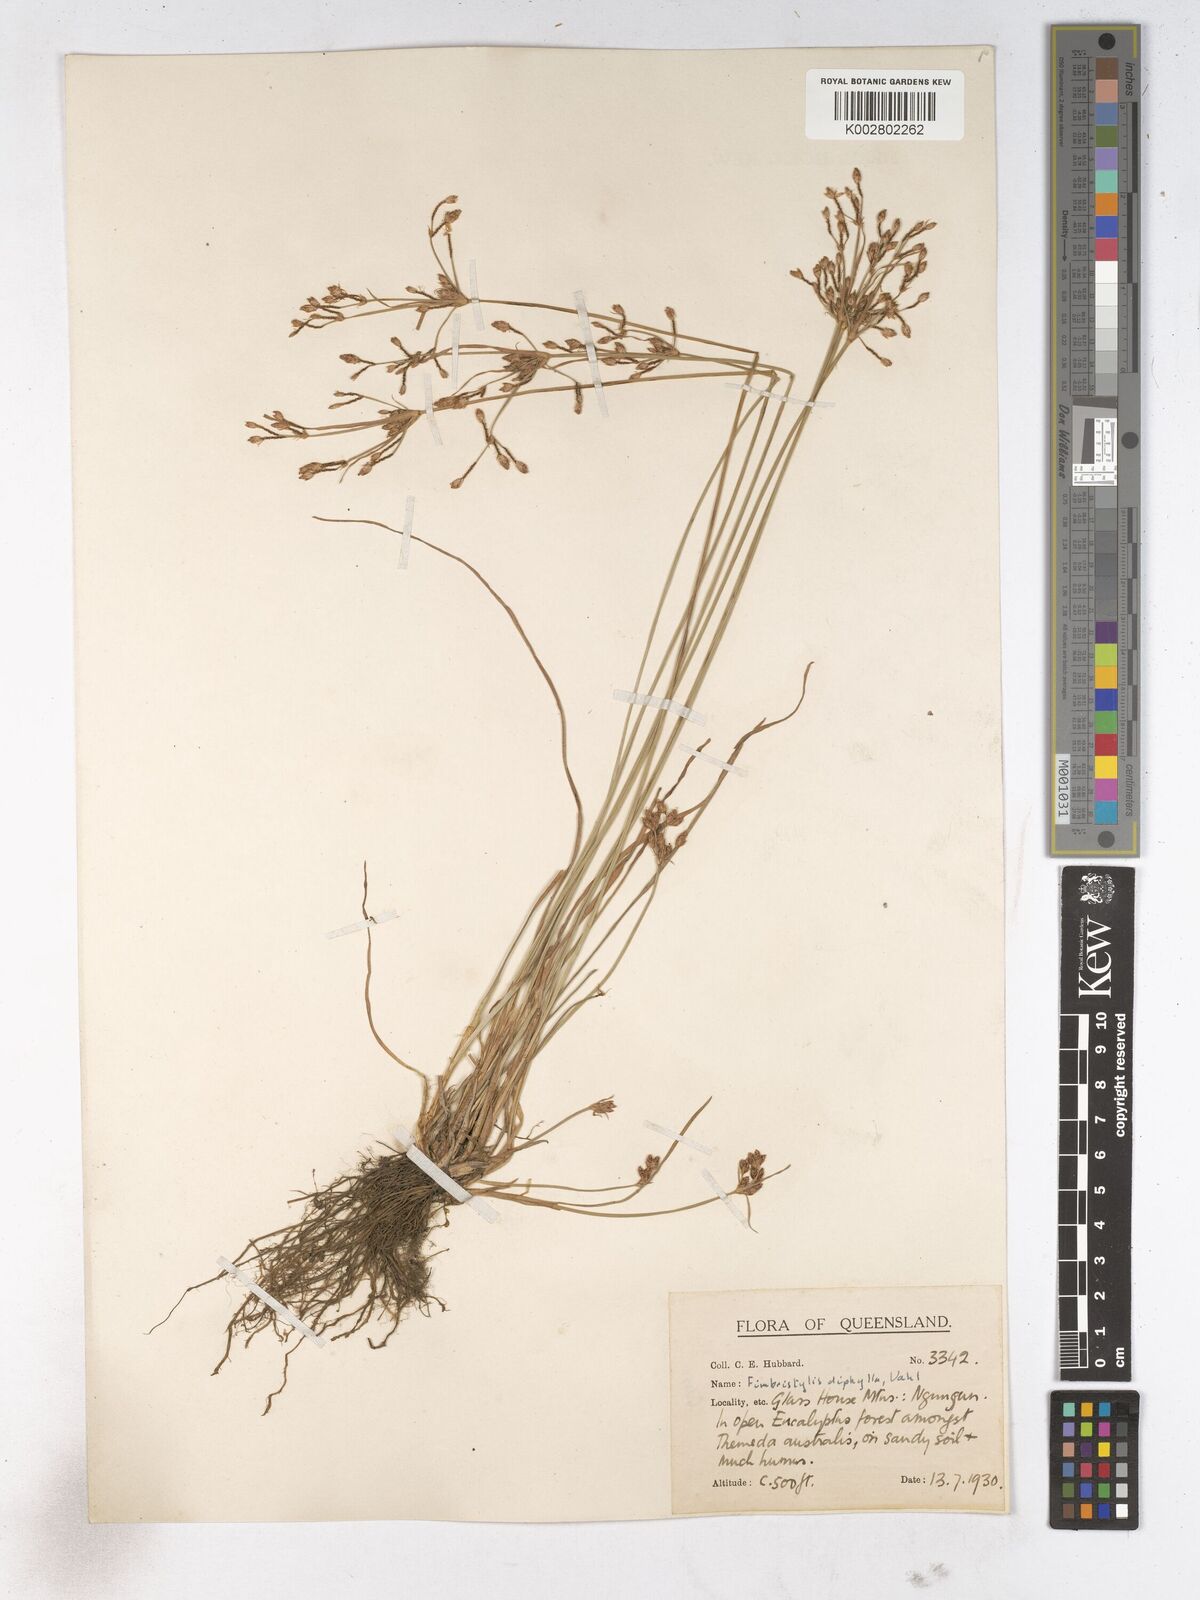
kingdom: Plantae
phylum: Tracheophyta
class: Liliopsida
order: Poales
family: Cyperaceae
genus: Fimbristylis
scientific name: Fimbristylis dichotoma
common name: Forked fimbry
